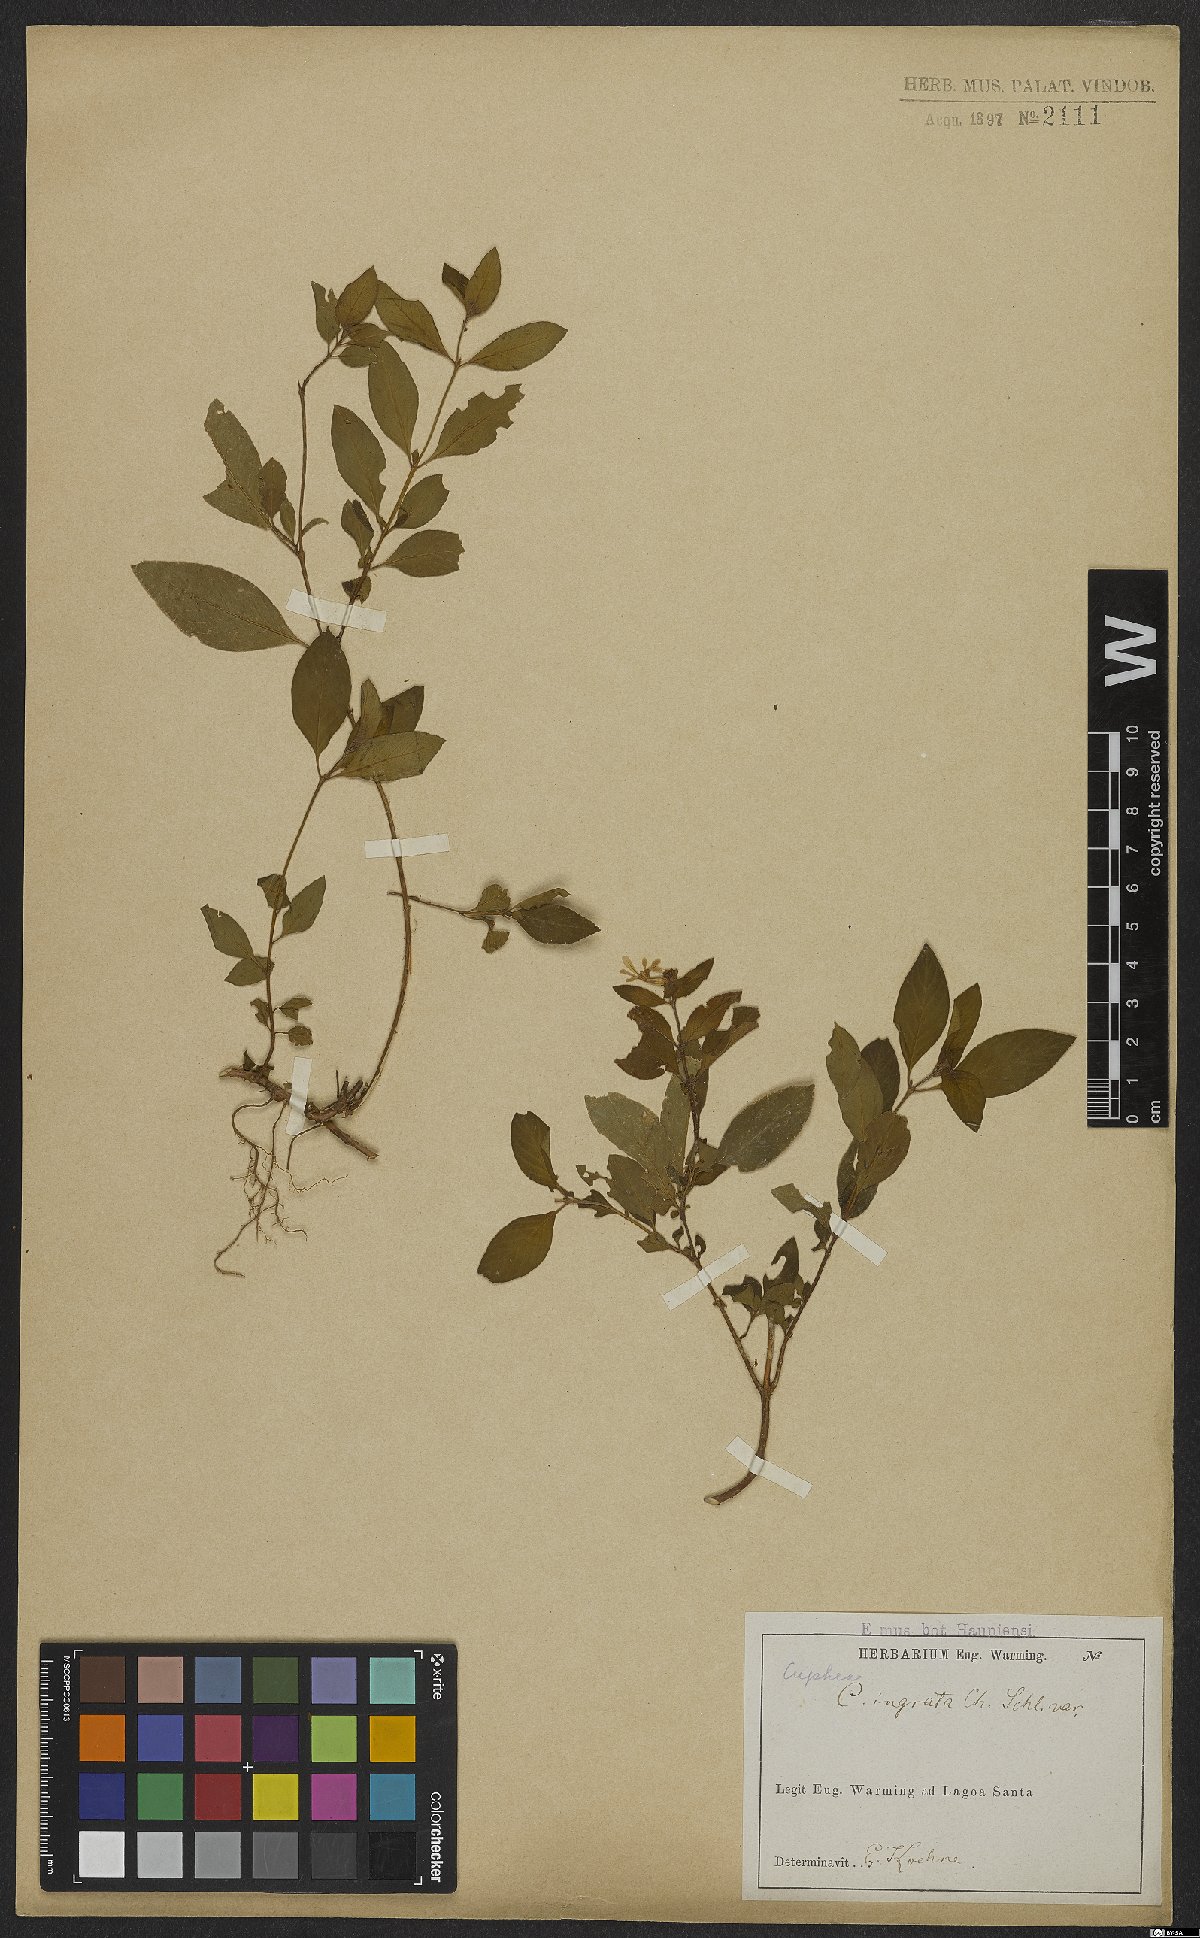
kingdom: Plantae
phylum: Tracheophyta
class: Magnoliopsida
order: Myrtales
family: Lythraceae
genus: Cuphea
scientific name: Cuphea ingrata
